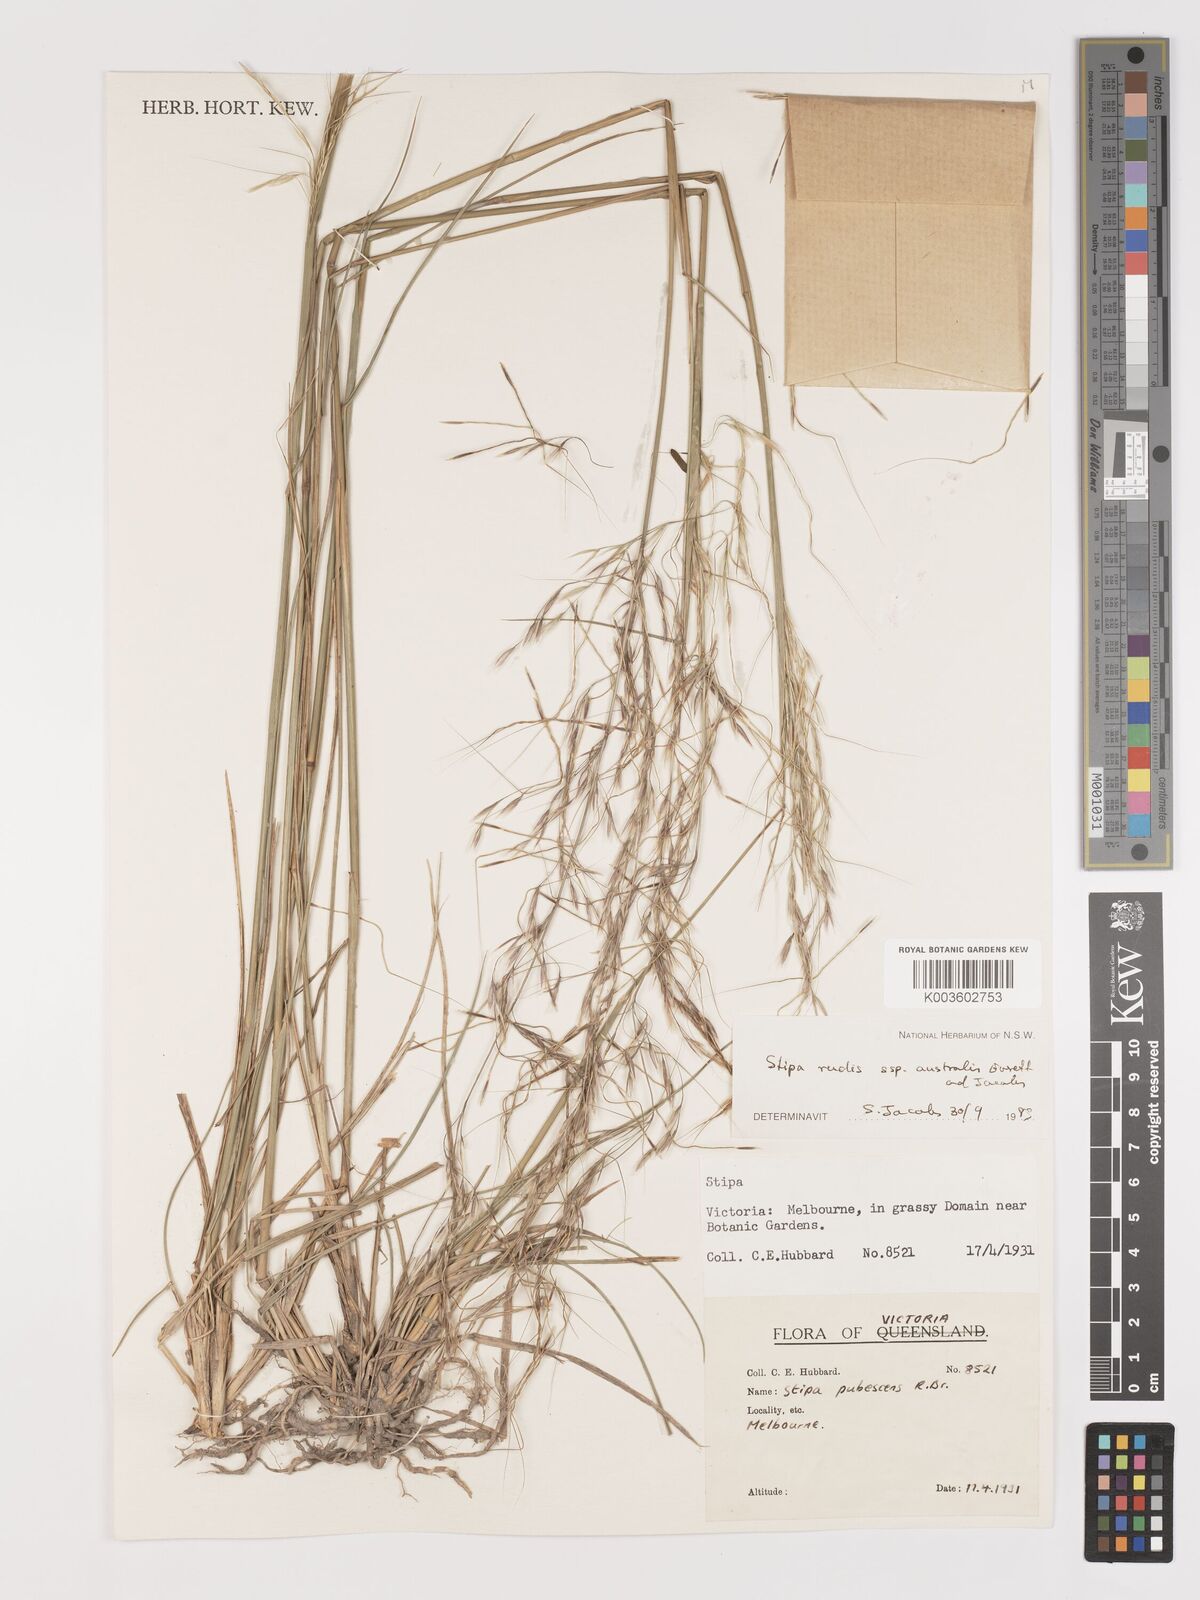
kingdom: Plantae
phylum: Tracheophyta
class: Liliopsida
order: Poales
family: Poaceae
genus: Austrostipa
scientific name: Austrostipa rudis
